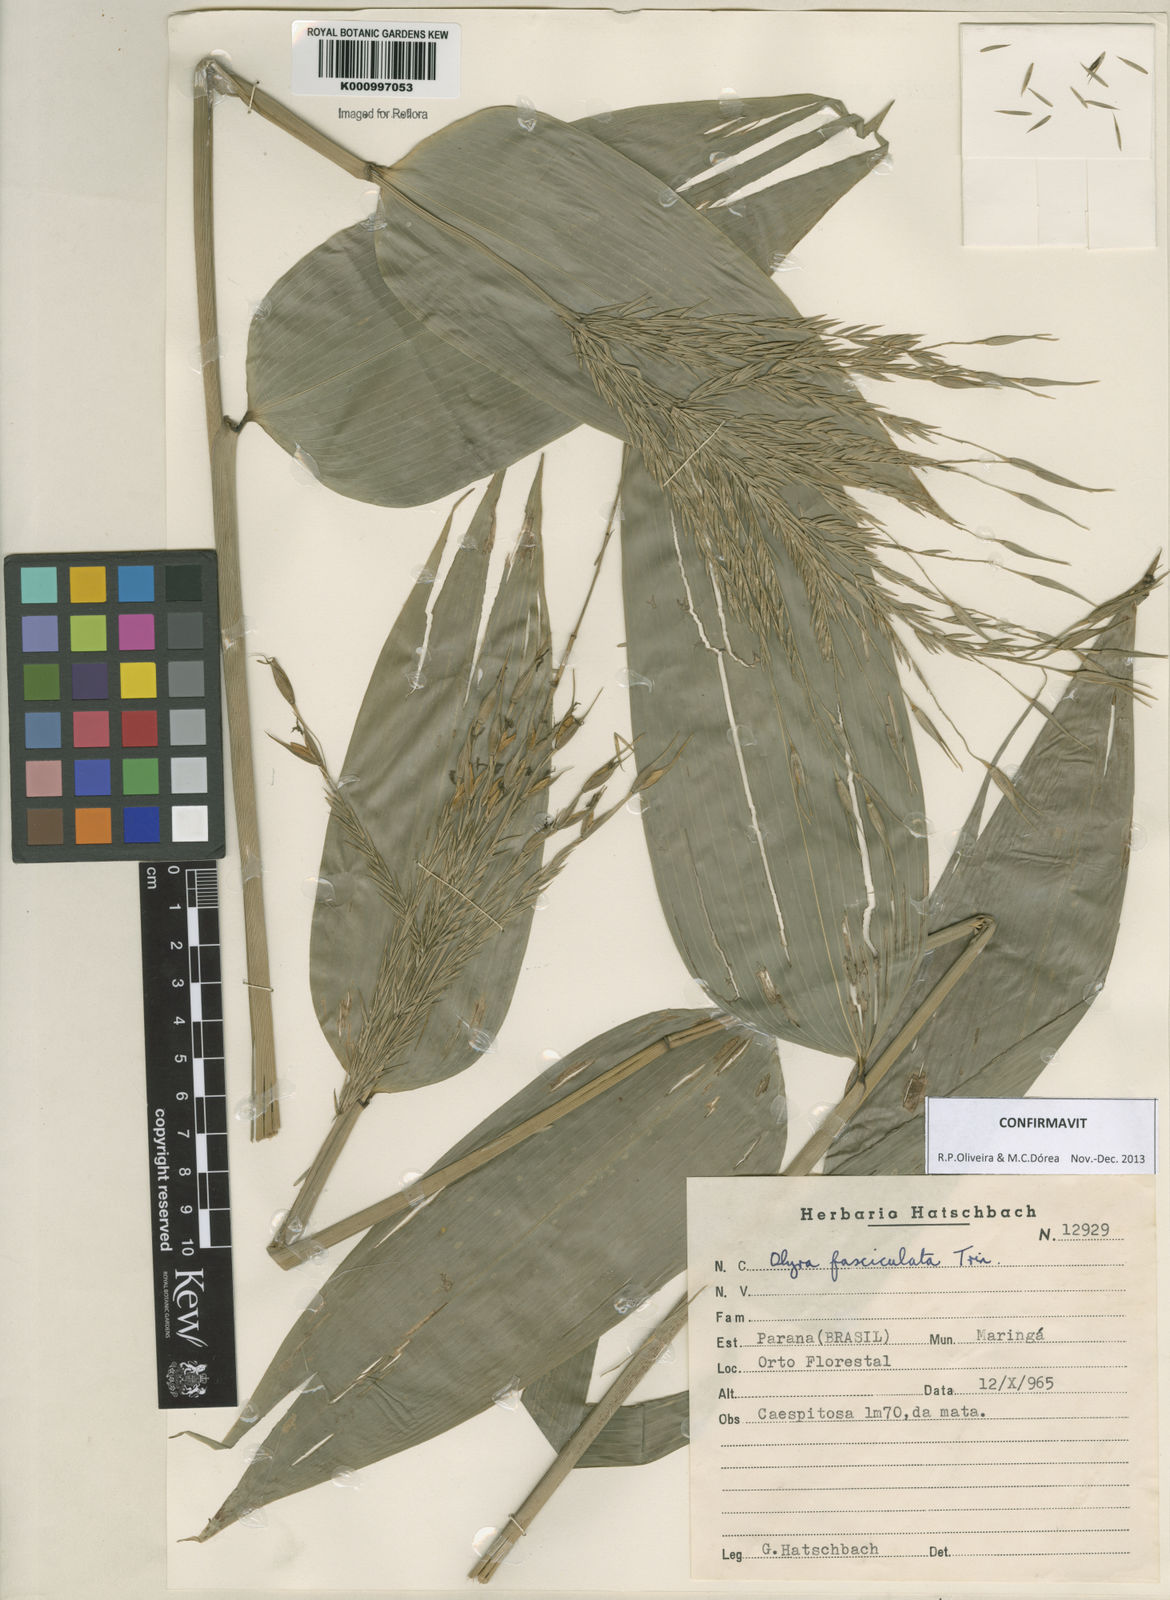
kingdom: Plantae
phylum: Tracheophyta
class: Liliopsida
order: Poales
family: Poaceae
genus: Olyra
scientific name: Olyra fasciculata
